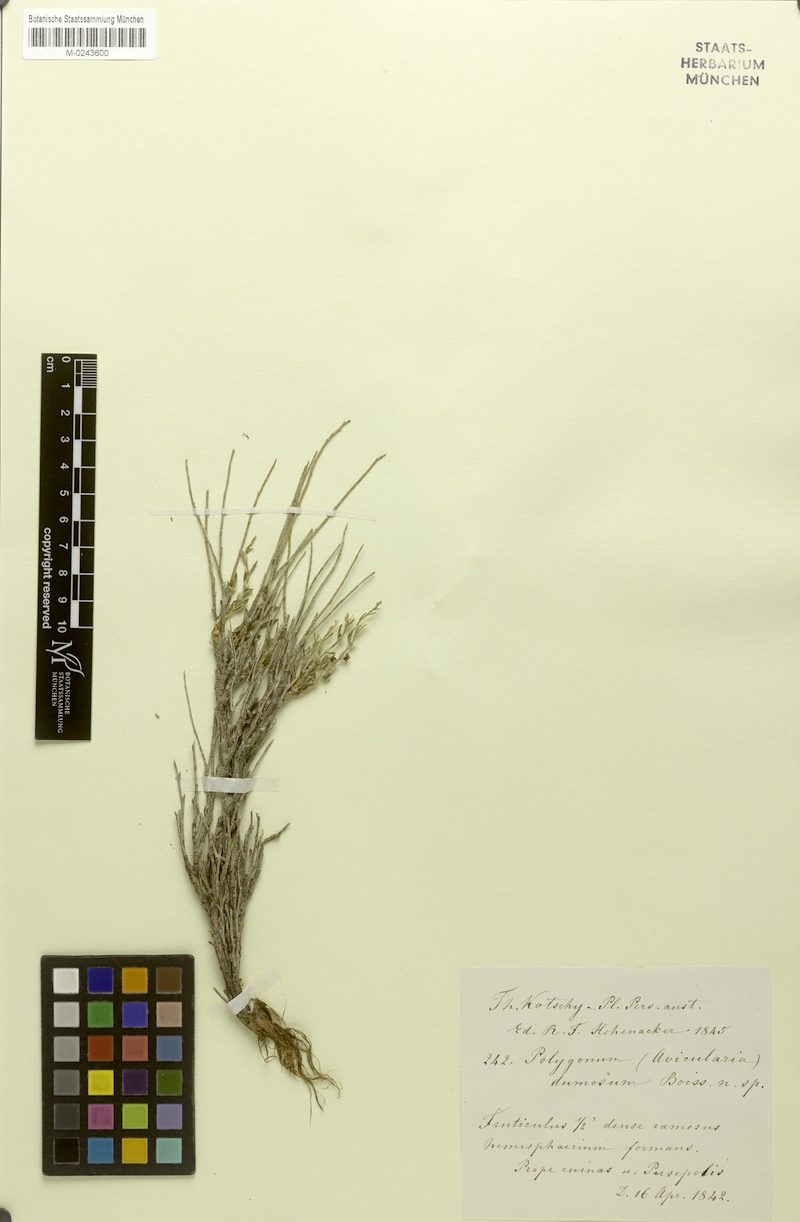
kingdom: Plantae
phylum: Tracheophyta
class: Magnoliopsida
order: Caryophyllales
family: Polygonaceae
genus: Atraphaxis
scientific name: Atraphaxis dumosa
